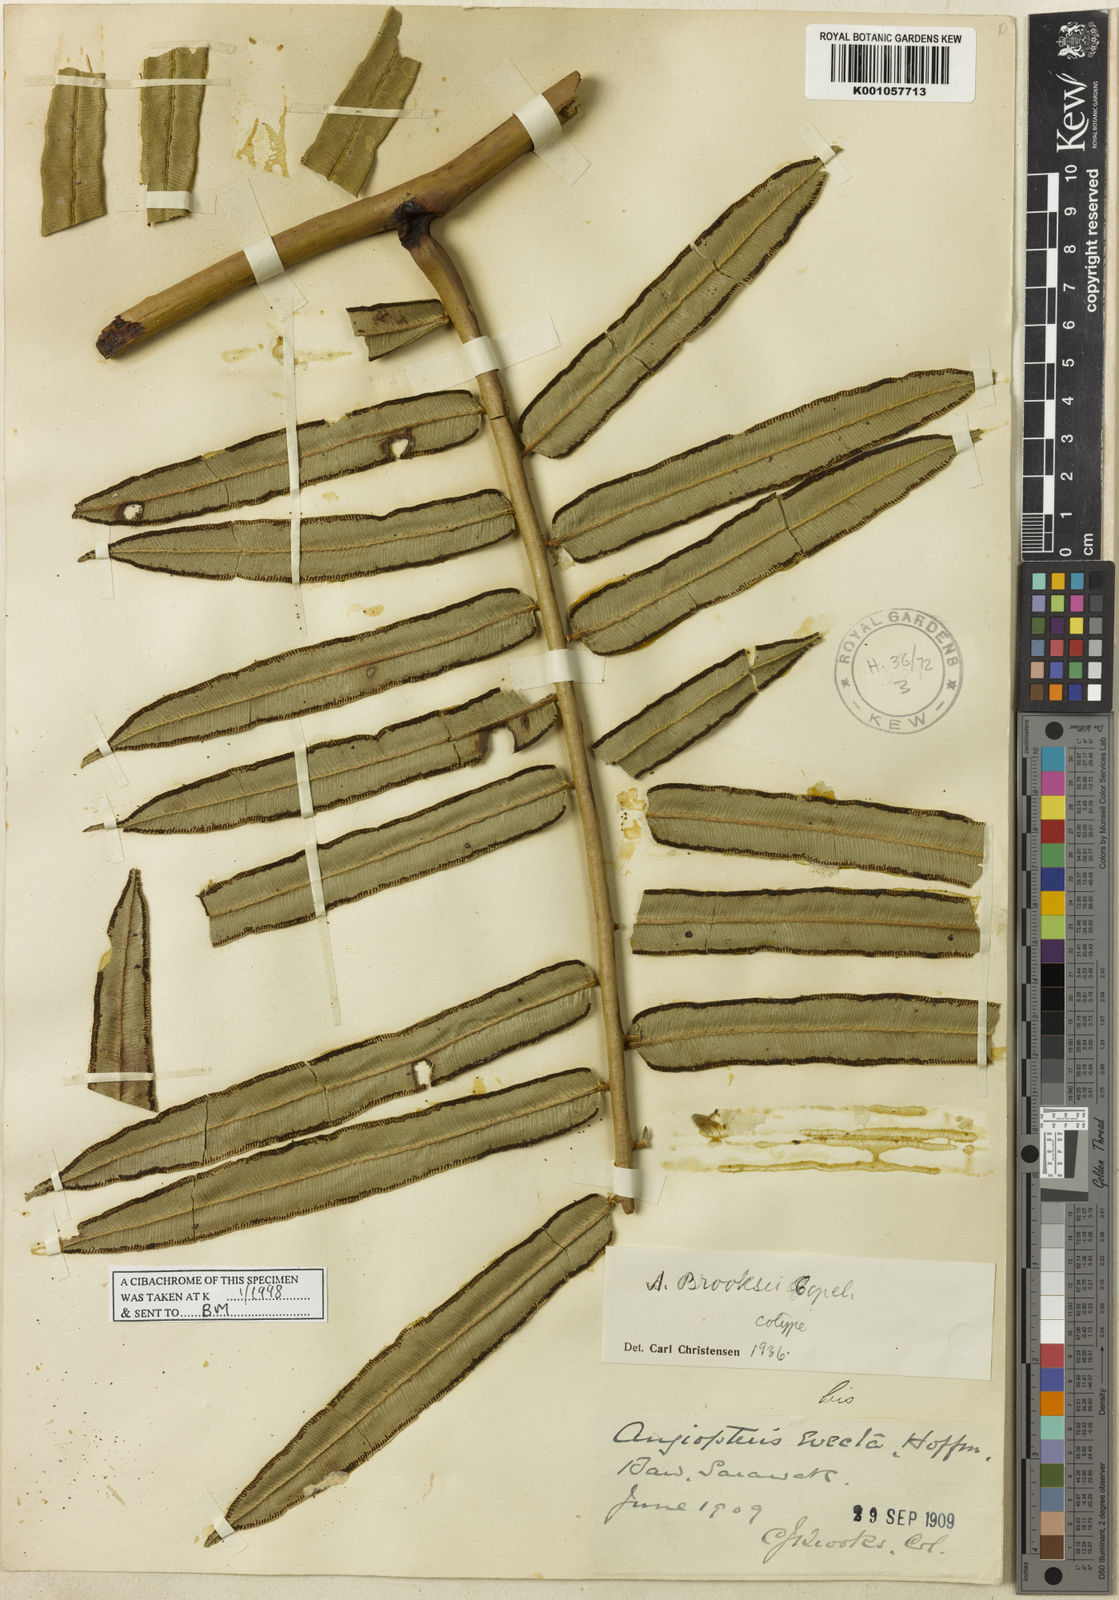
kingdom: Plantae
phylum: Tracheophyta
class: Polypodiopsida
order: Marattiales
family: Marattiaceae
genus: Angiopteris
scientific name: Angiopteris brooksii
